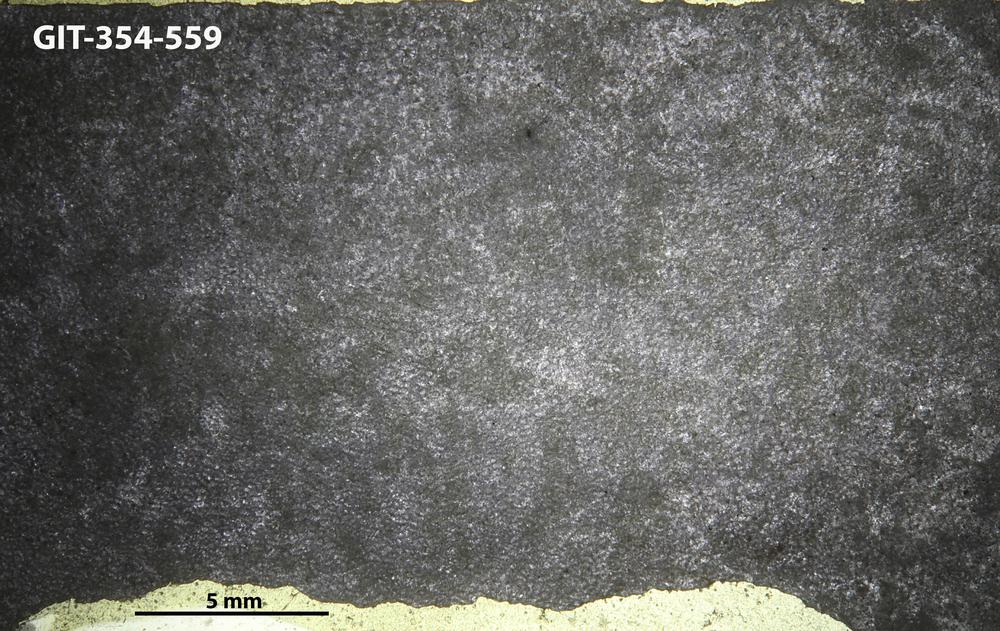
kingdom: Animalia
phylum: Porifera
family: Ecclimadictyidae
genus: Ecclimadictyon
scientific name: Ecclimadictyon Clathrodictyon fastigiatum
